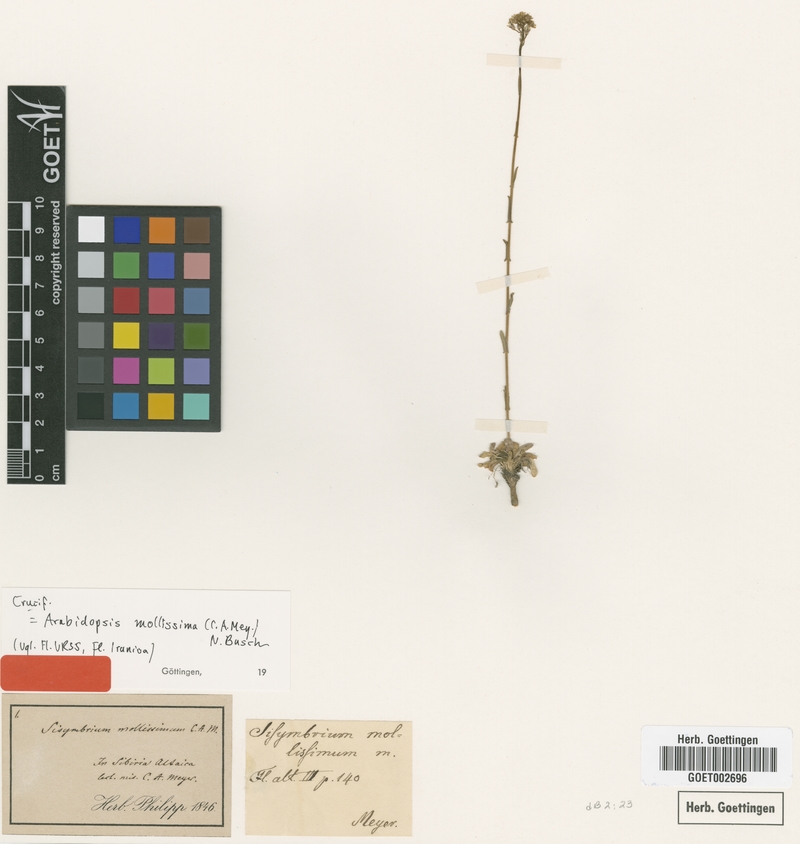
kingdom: Plantae
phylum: Tracheophyta
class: Magnoliopsida
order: Brassicales
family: Brassicaceae
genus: Crucihimalaya
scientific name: Crucihimalaya mollissima
